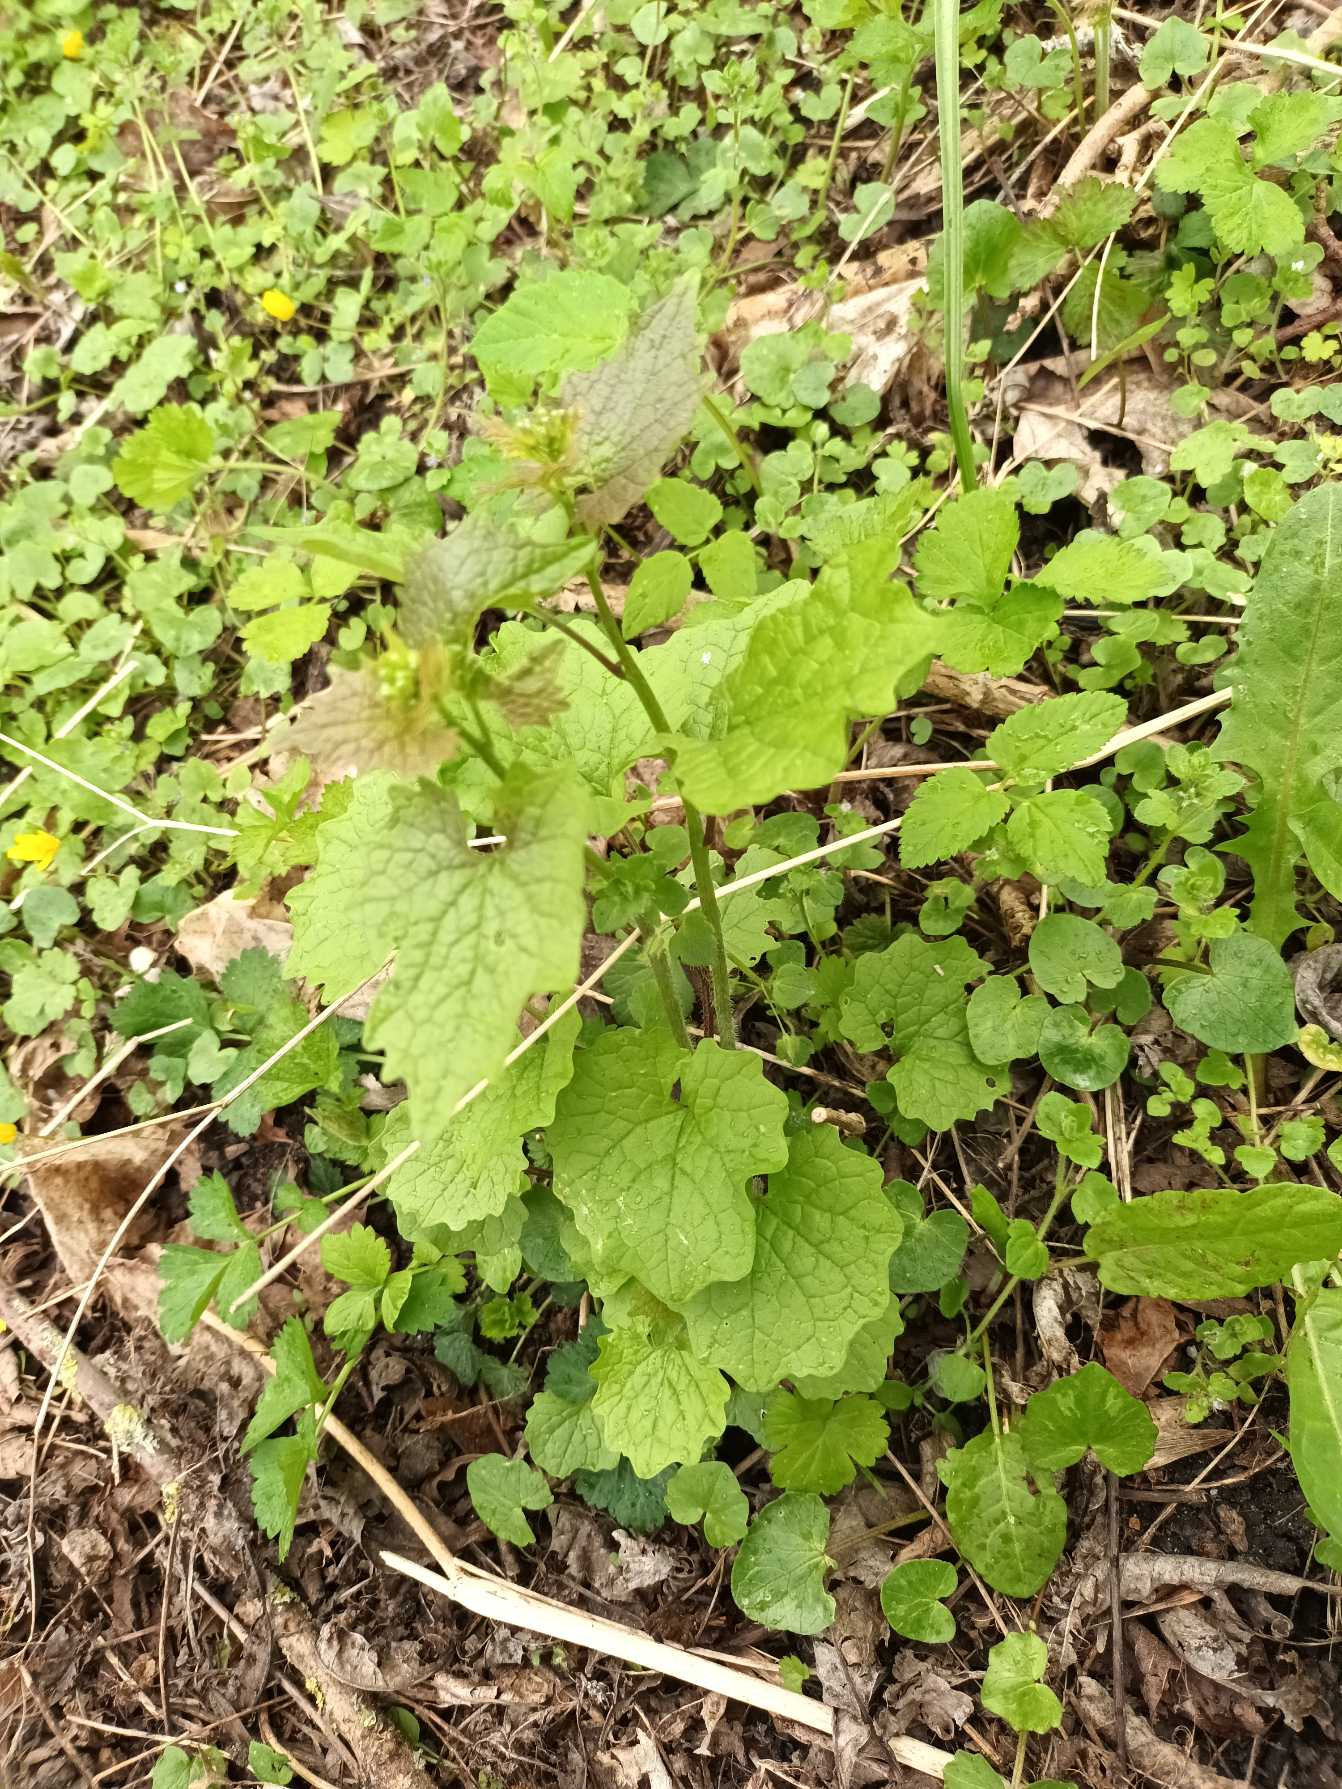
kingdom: Plantae
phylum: Tracheophyta
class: Magnoliopsida
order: Brassicales
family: Brassicaceae
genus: Alliaria
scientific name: Alliaria petiolata
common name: Løgkarse
